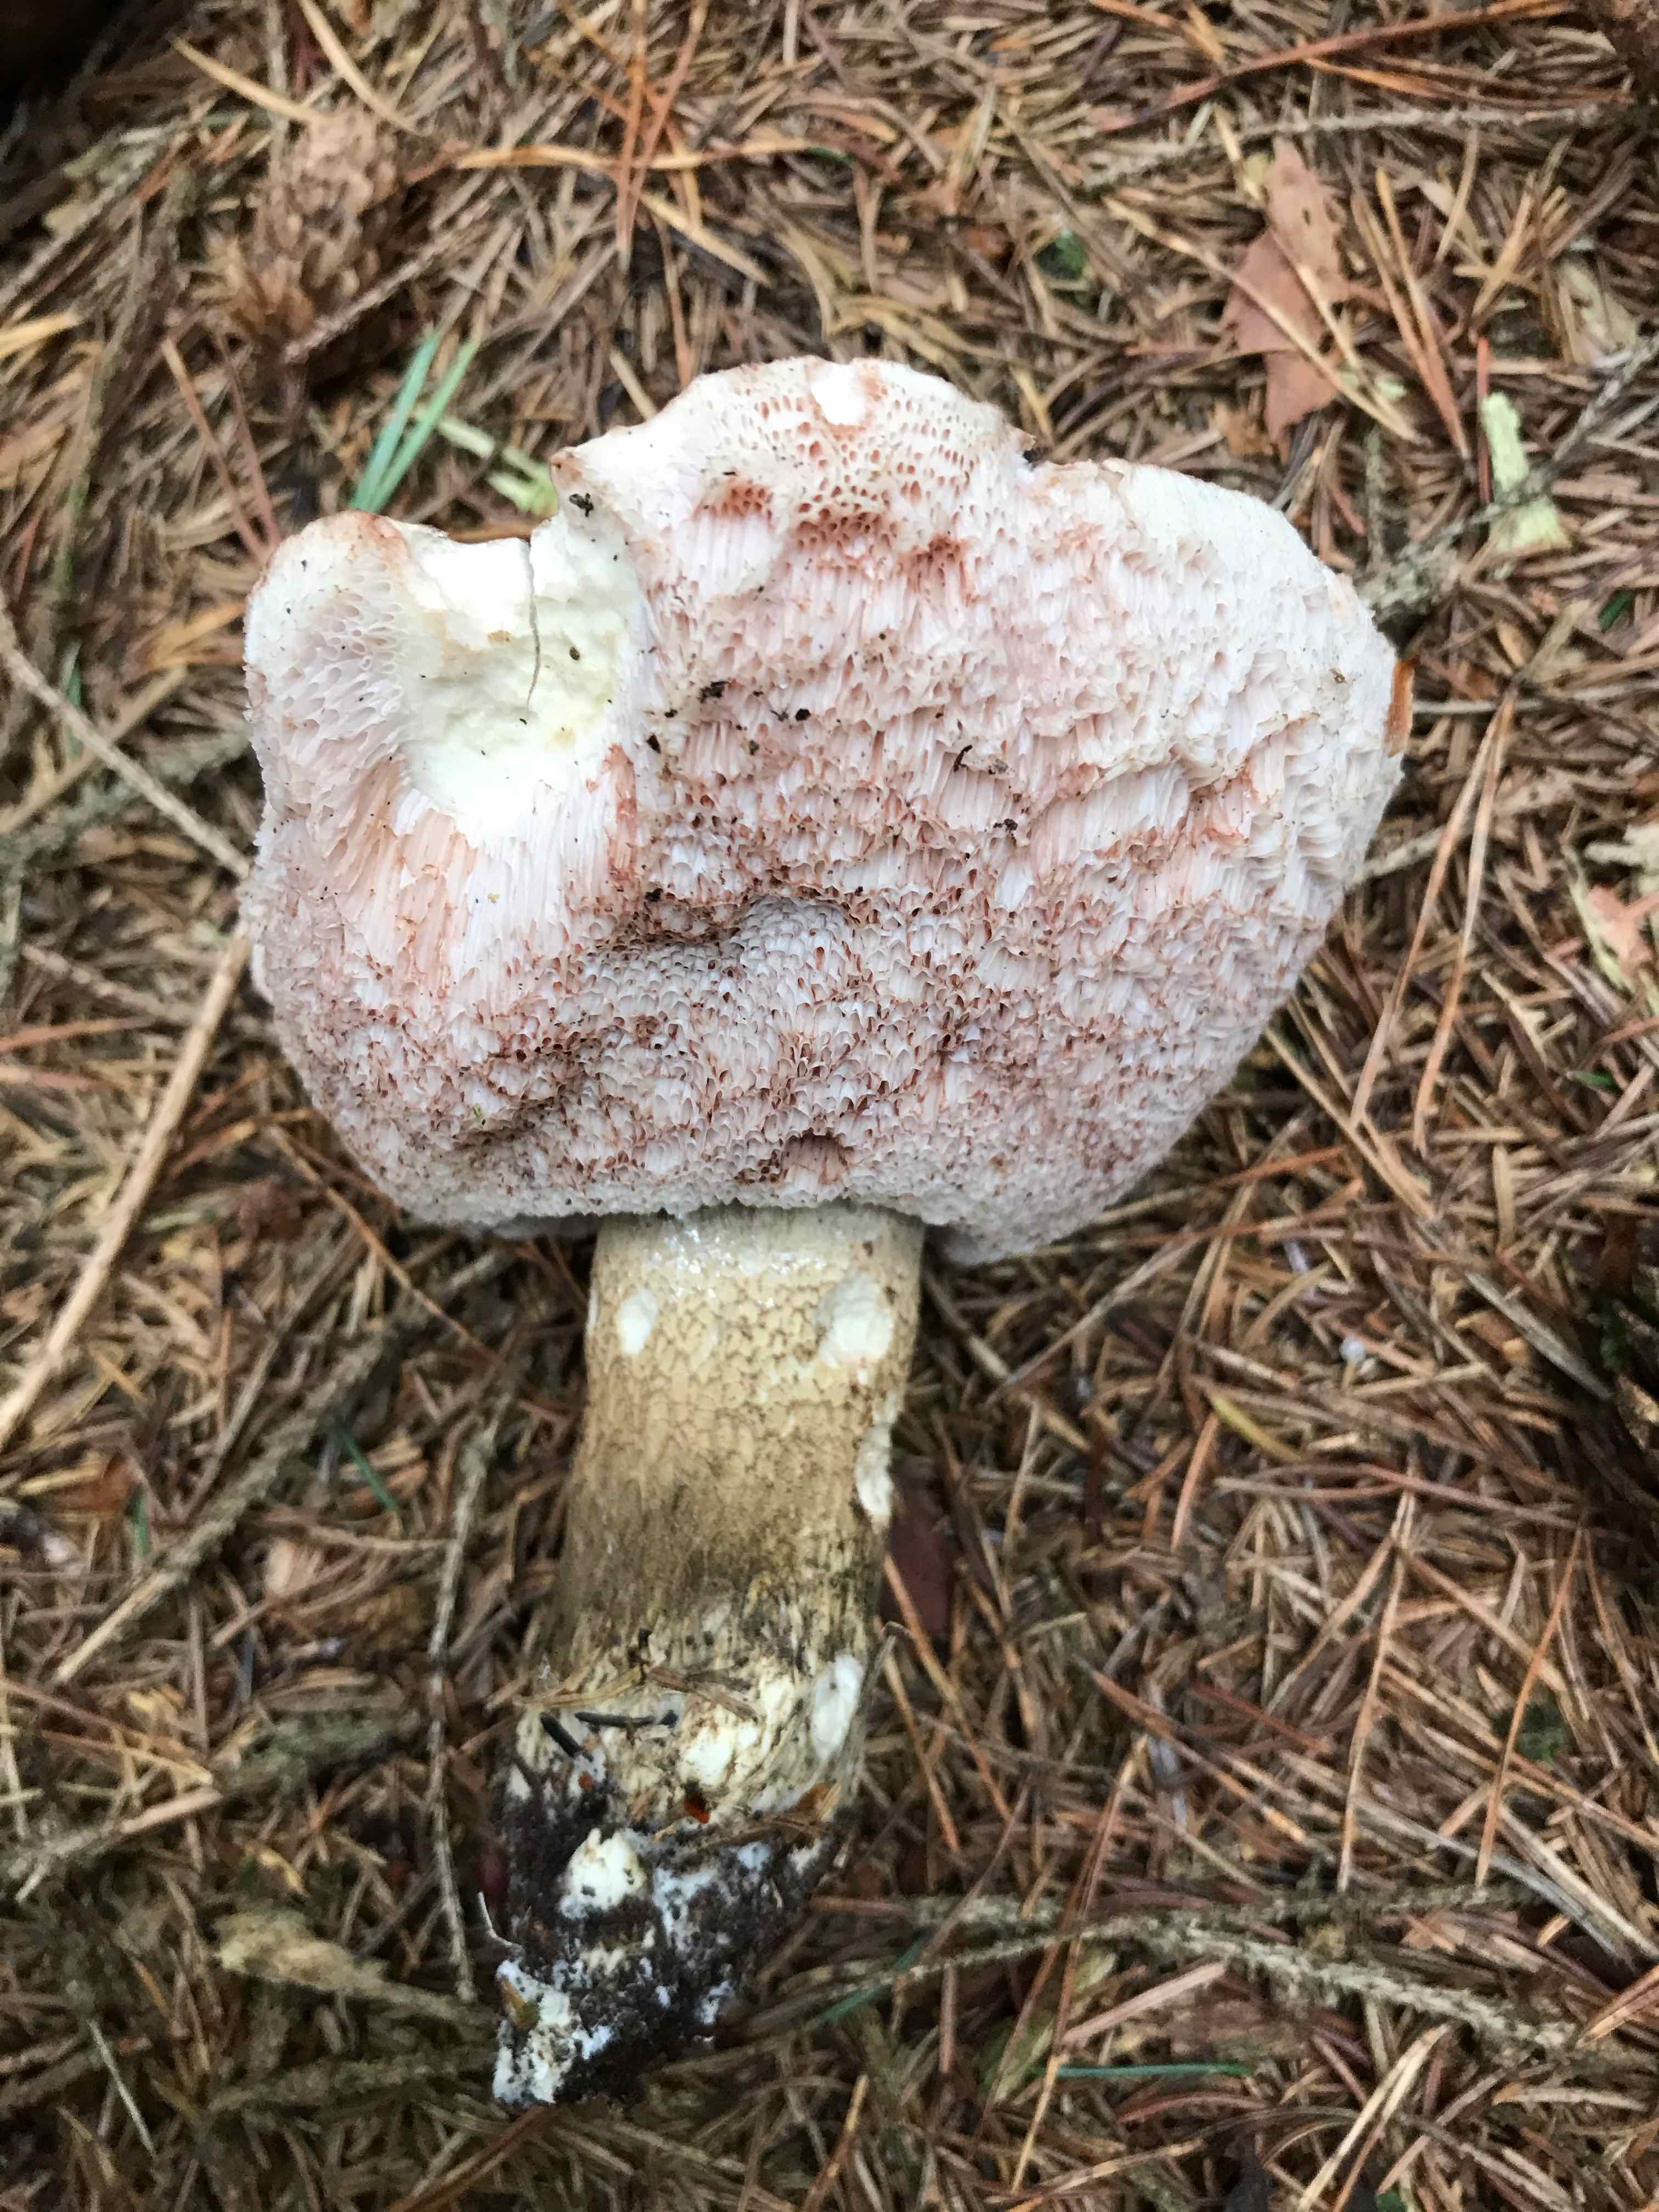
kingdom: Fungi
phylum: Basidiomycota
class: Agaricomycetes
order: Boletales
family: Boletaceae
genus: Tylopilus
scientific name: Tylopilus felleus
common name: galderørhat
